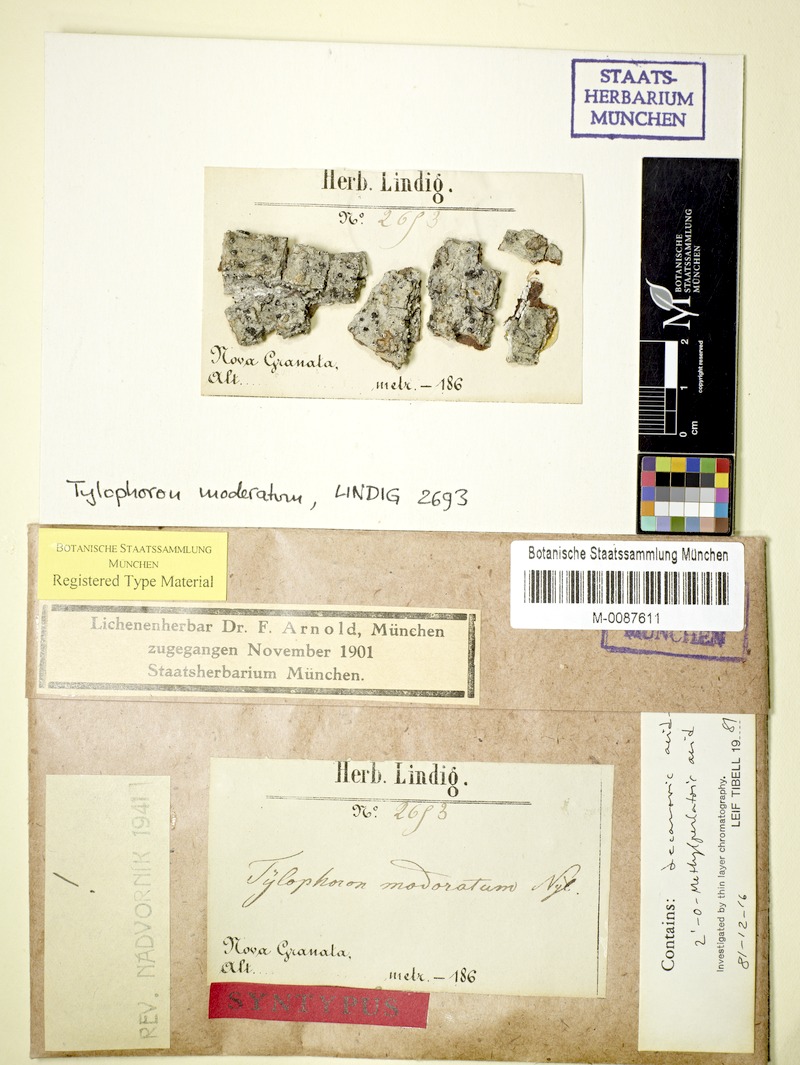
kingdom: Fungi
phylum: Ascomycota
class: Arthoniomycetes
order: Arthoniales
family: Arthoniaceae
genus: Tylophoron
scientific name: Tylophoron moderatum
